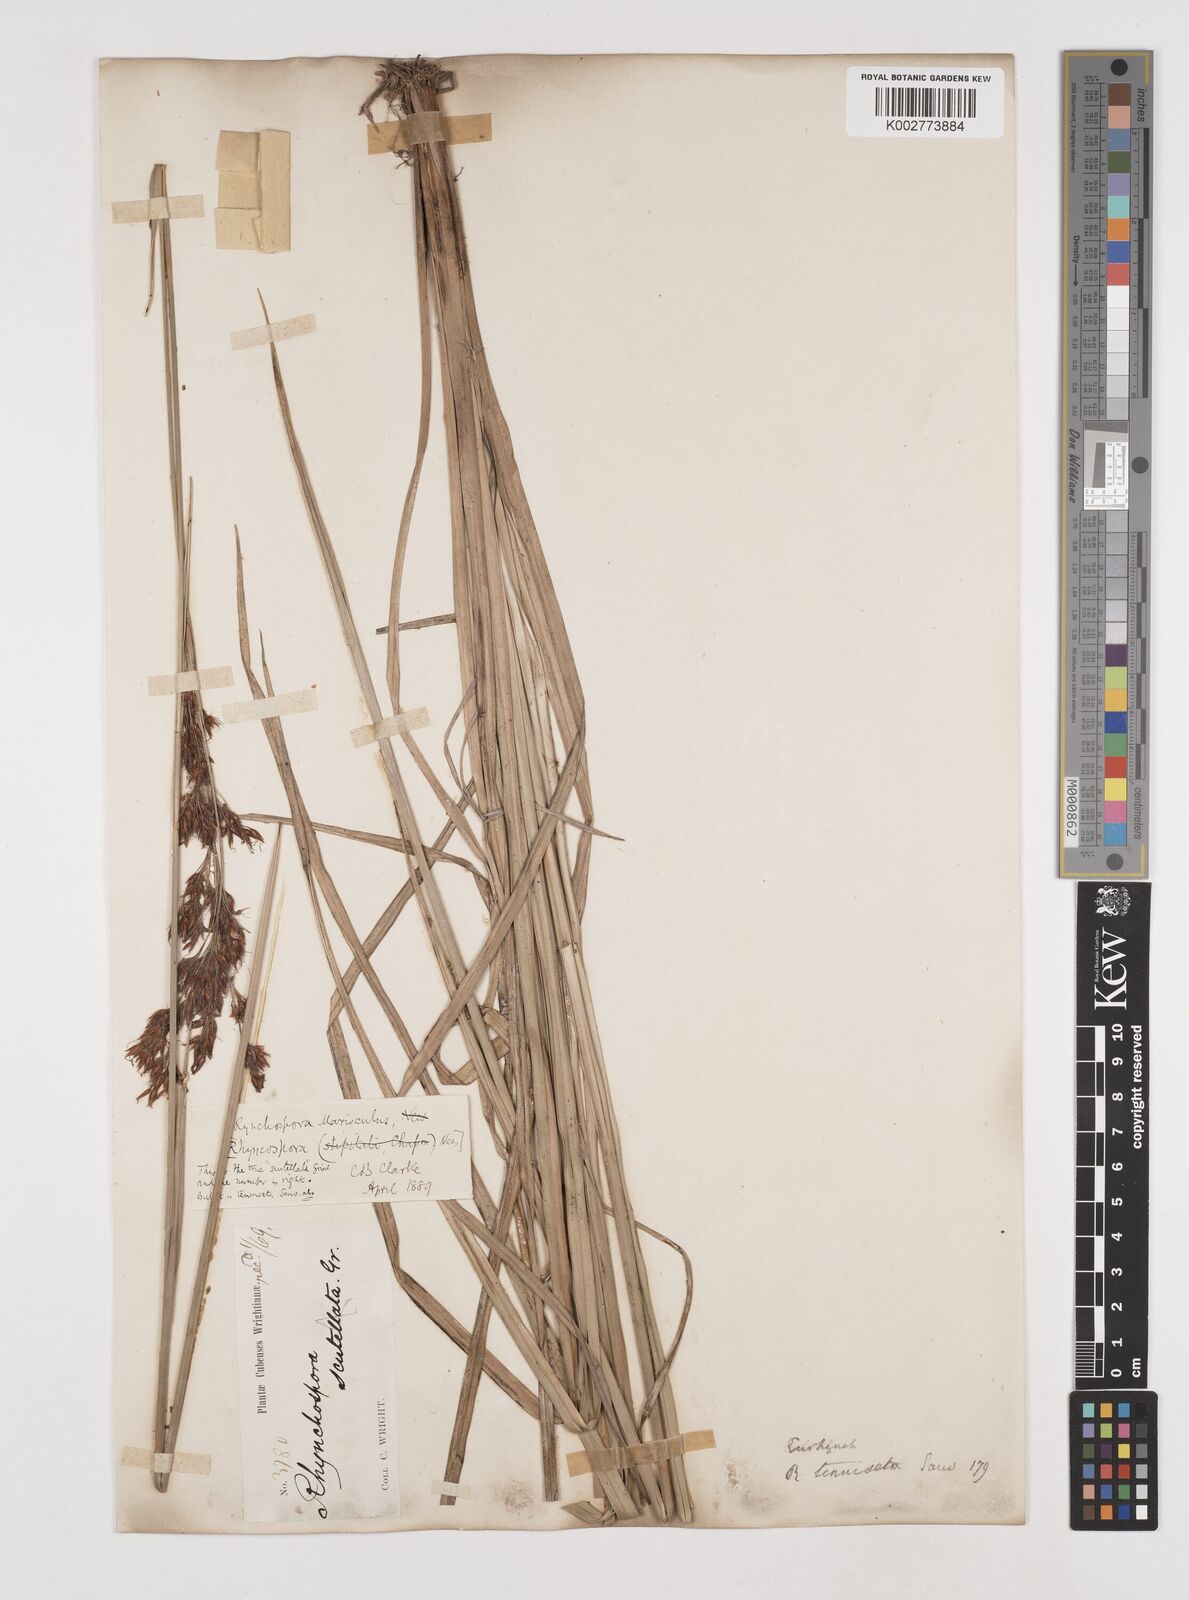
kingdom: Plantae
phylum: Tracheophyta
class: Liliopsida
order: Poales
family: Cyperaceae
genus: Rhynchospora
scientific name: Rhynchospora marisculus
